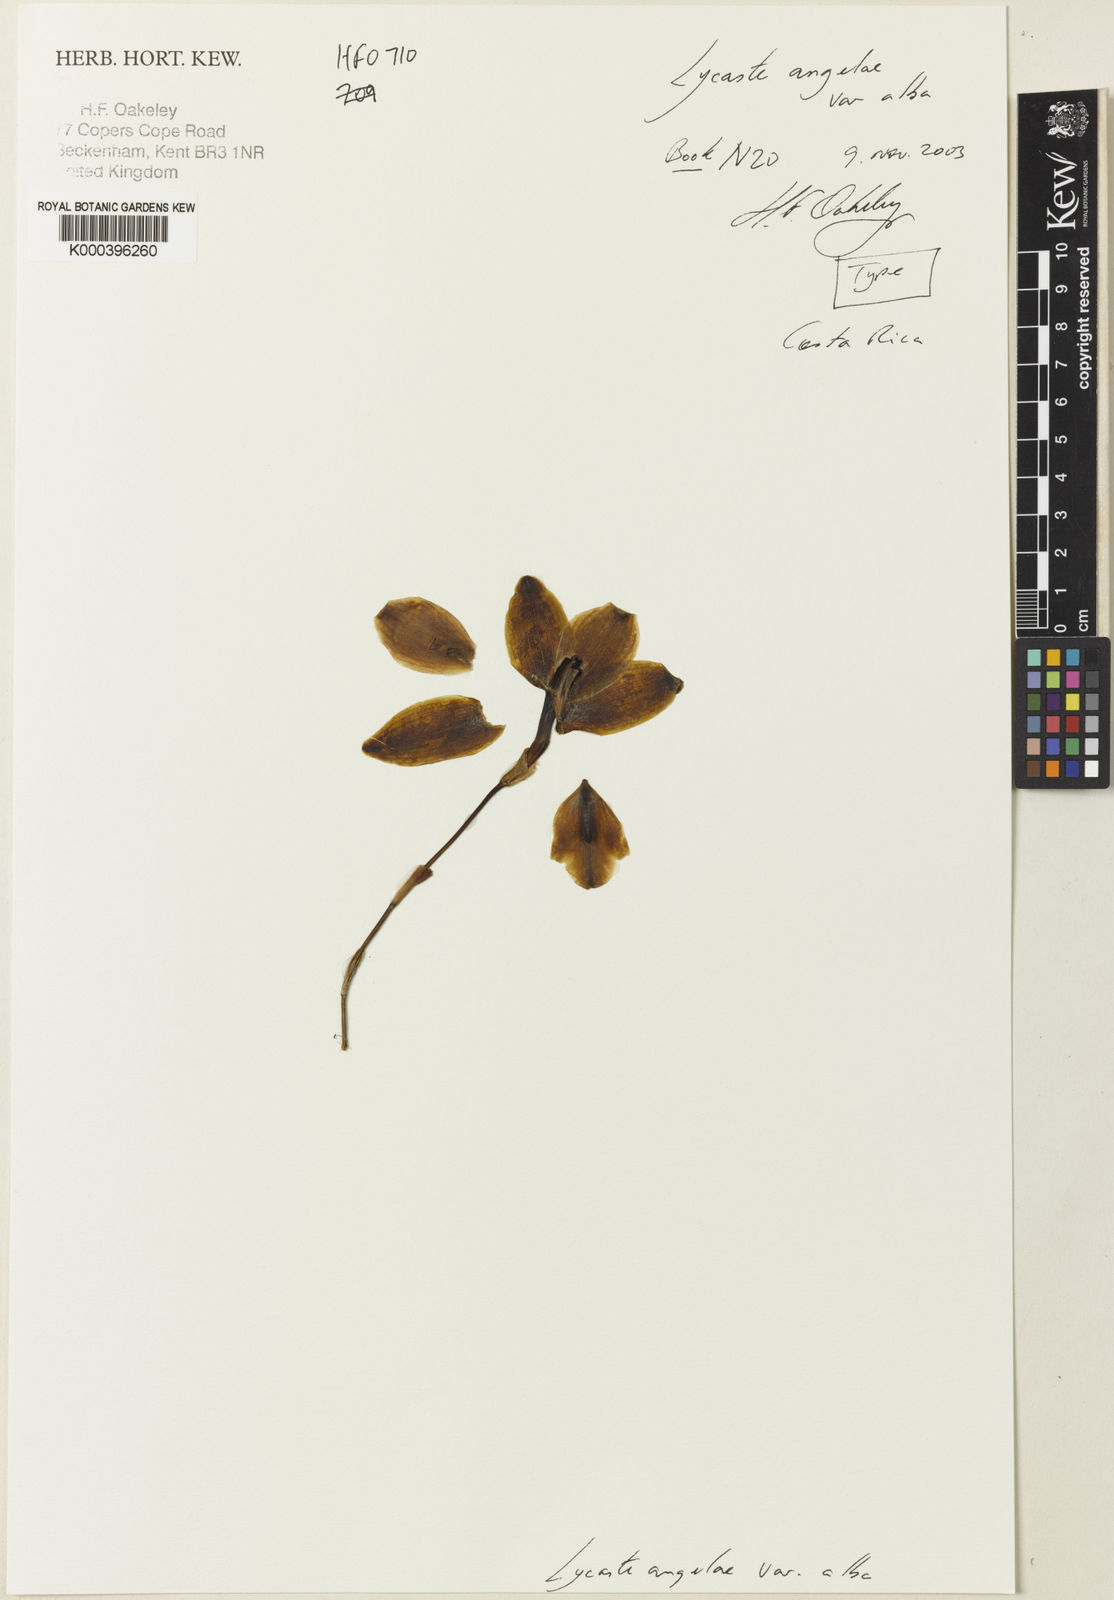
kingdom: Plantae
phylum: Tracheophyta
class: Liliopsida
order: Asparagales
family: Orchidaceae
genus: Lycaste
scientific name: Lycaste angelae
